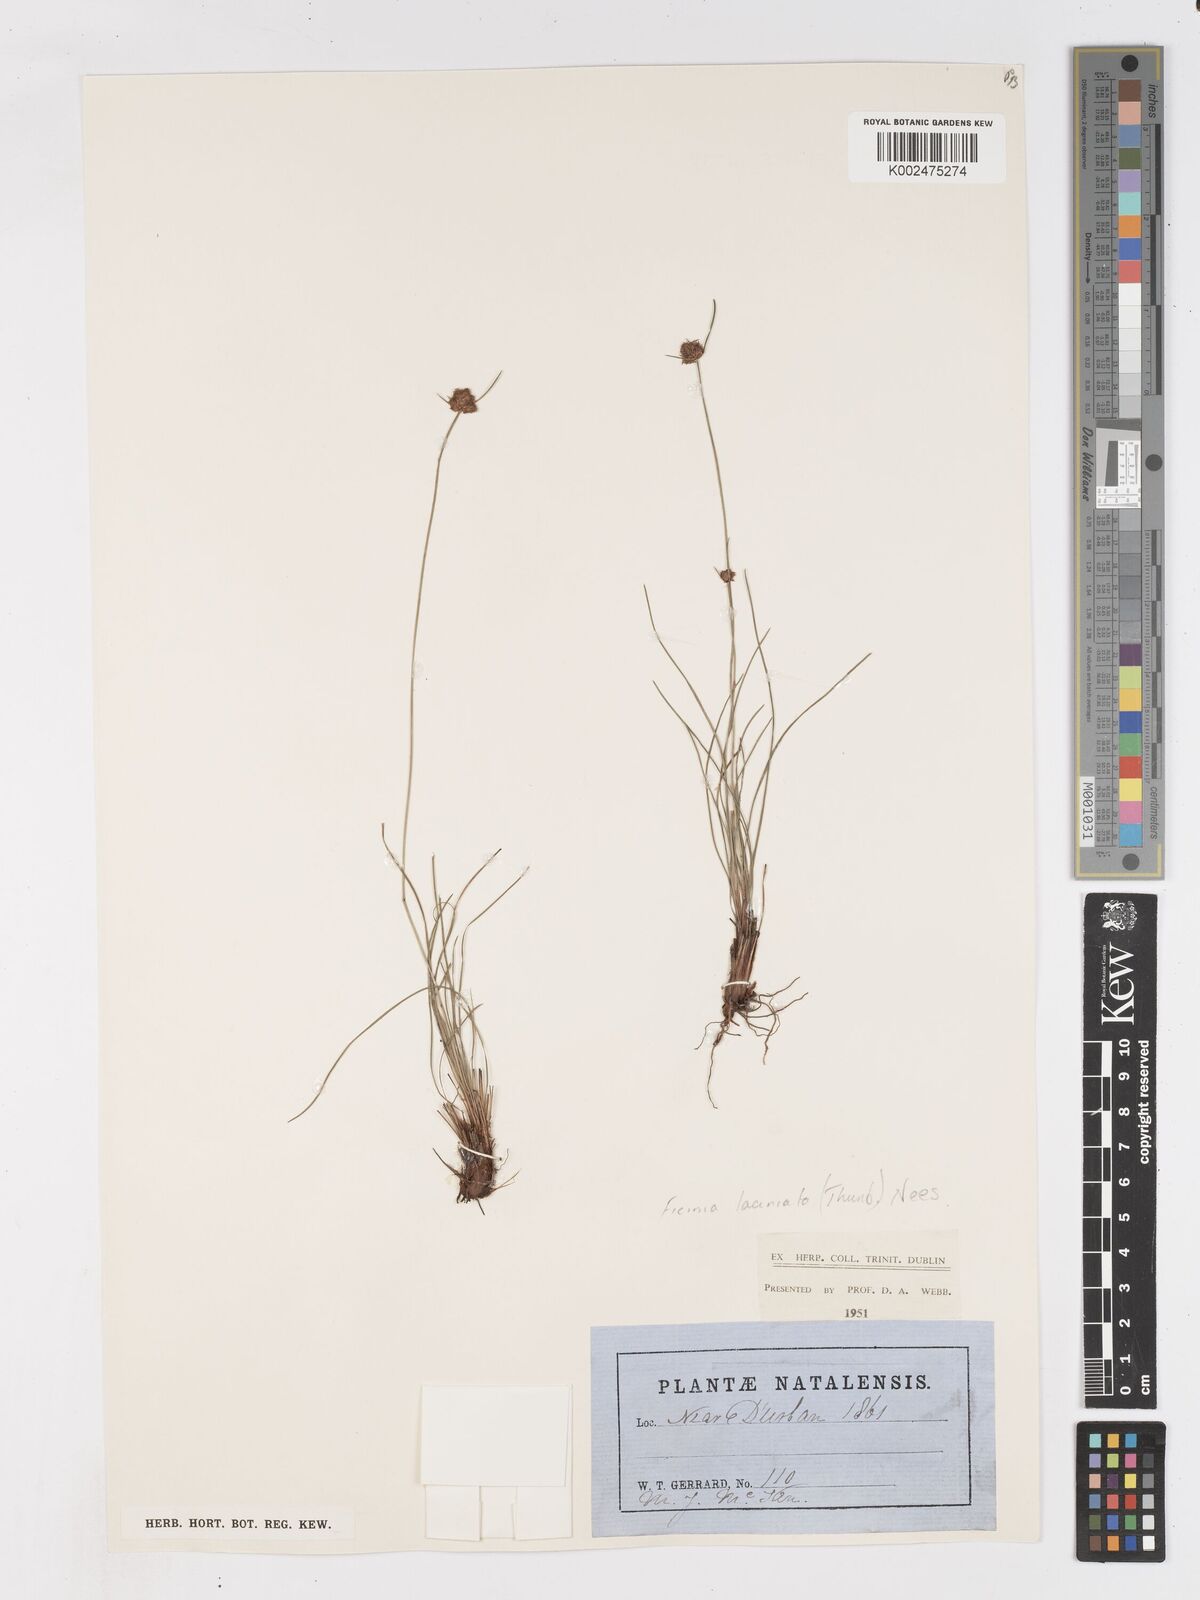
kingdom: Plantae
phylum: Tracheophyta
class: Liliopsida
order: Poales
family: Cyperaceae
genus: Ficinia
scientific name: Ficinia laciniata
